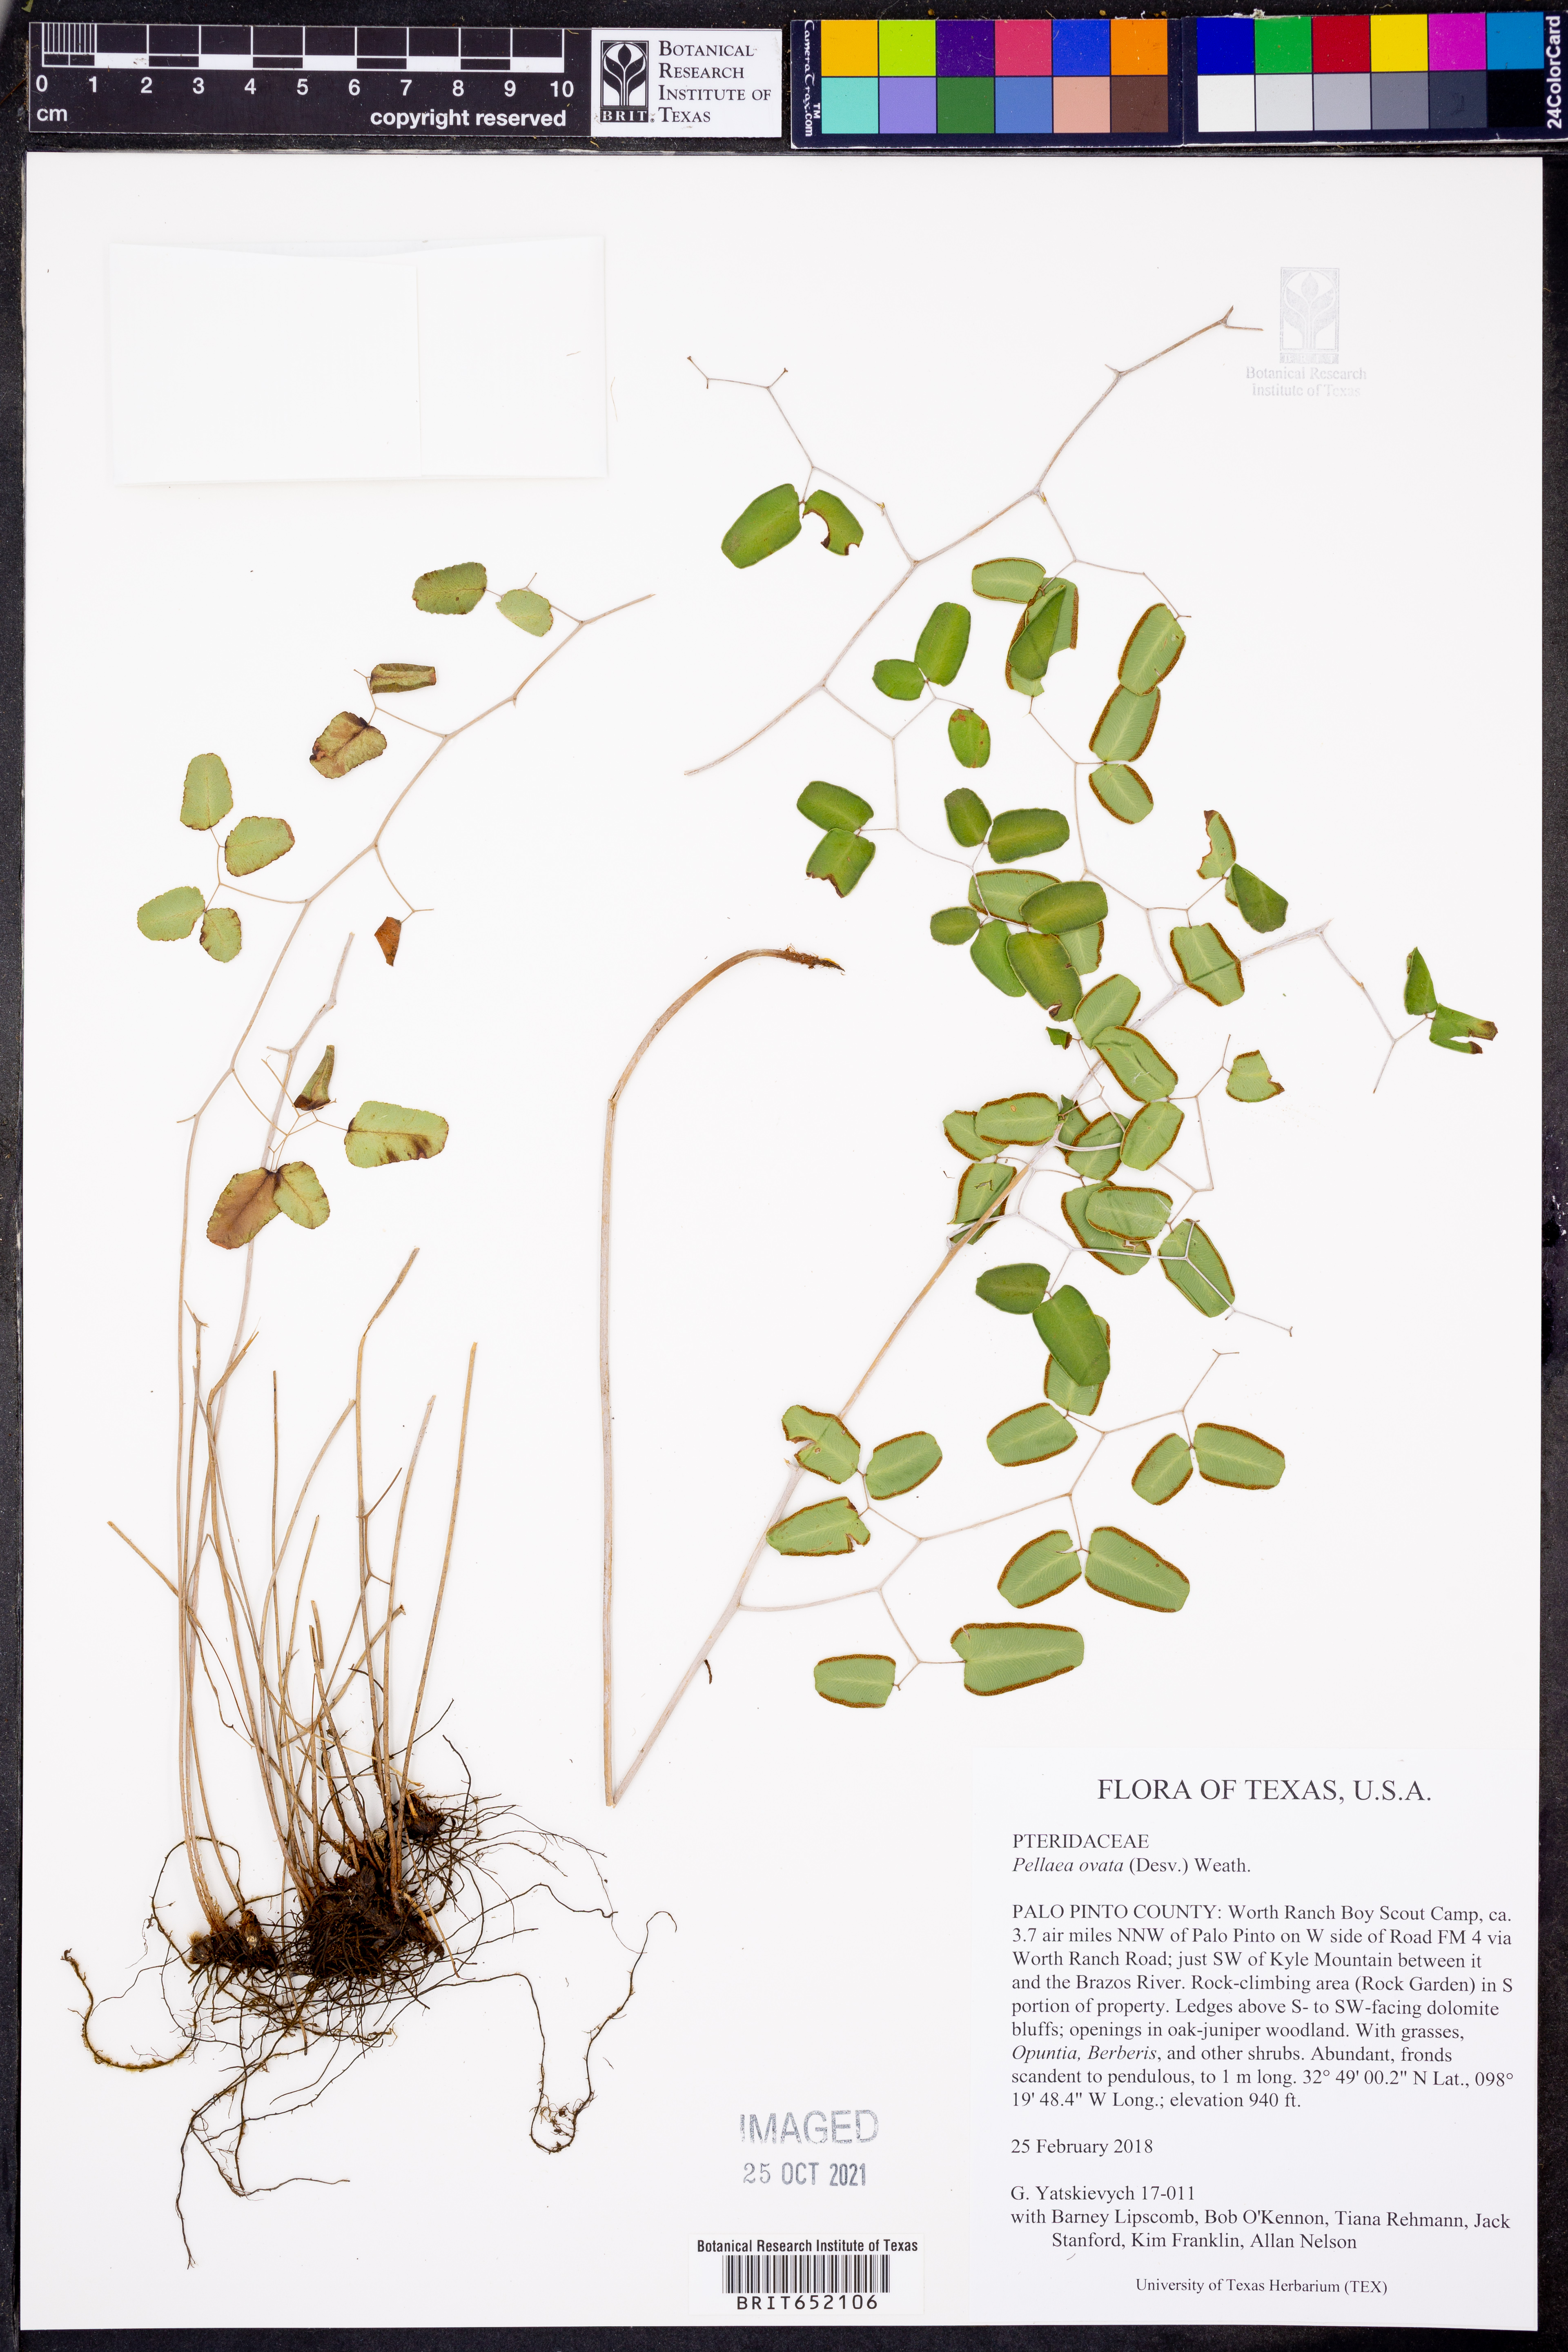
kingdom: Plantae
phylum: Tracheophyta
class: Polypodiopsida
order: Polypodiales
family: Pteridaceae
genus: Pellaea
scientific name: Pellaea ovata
